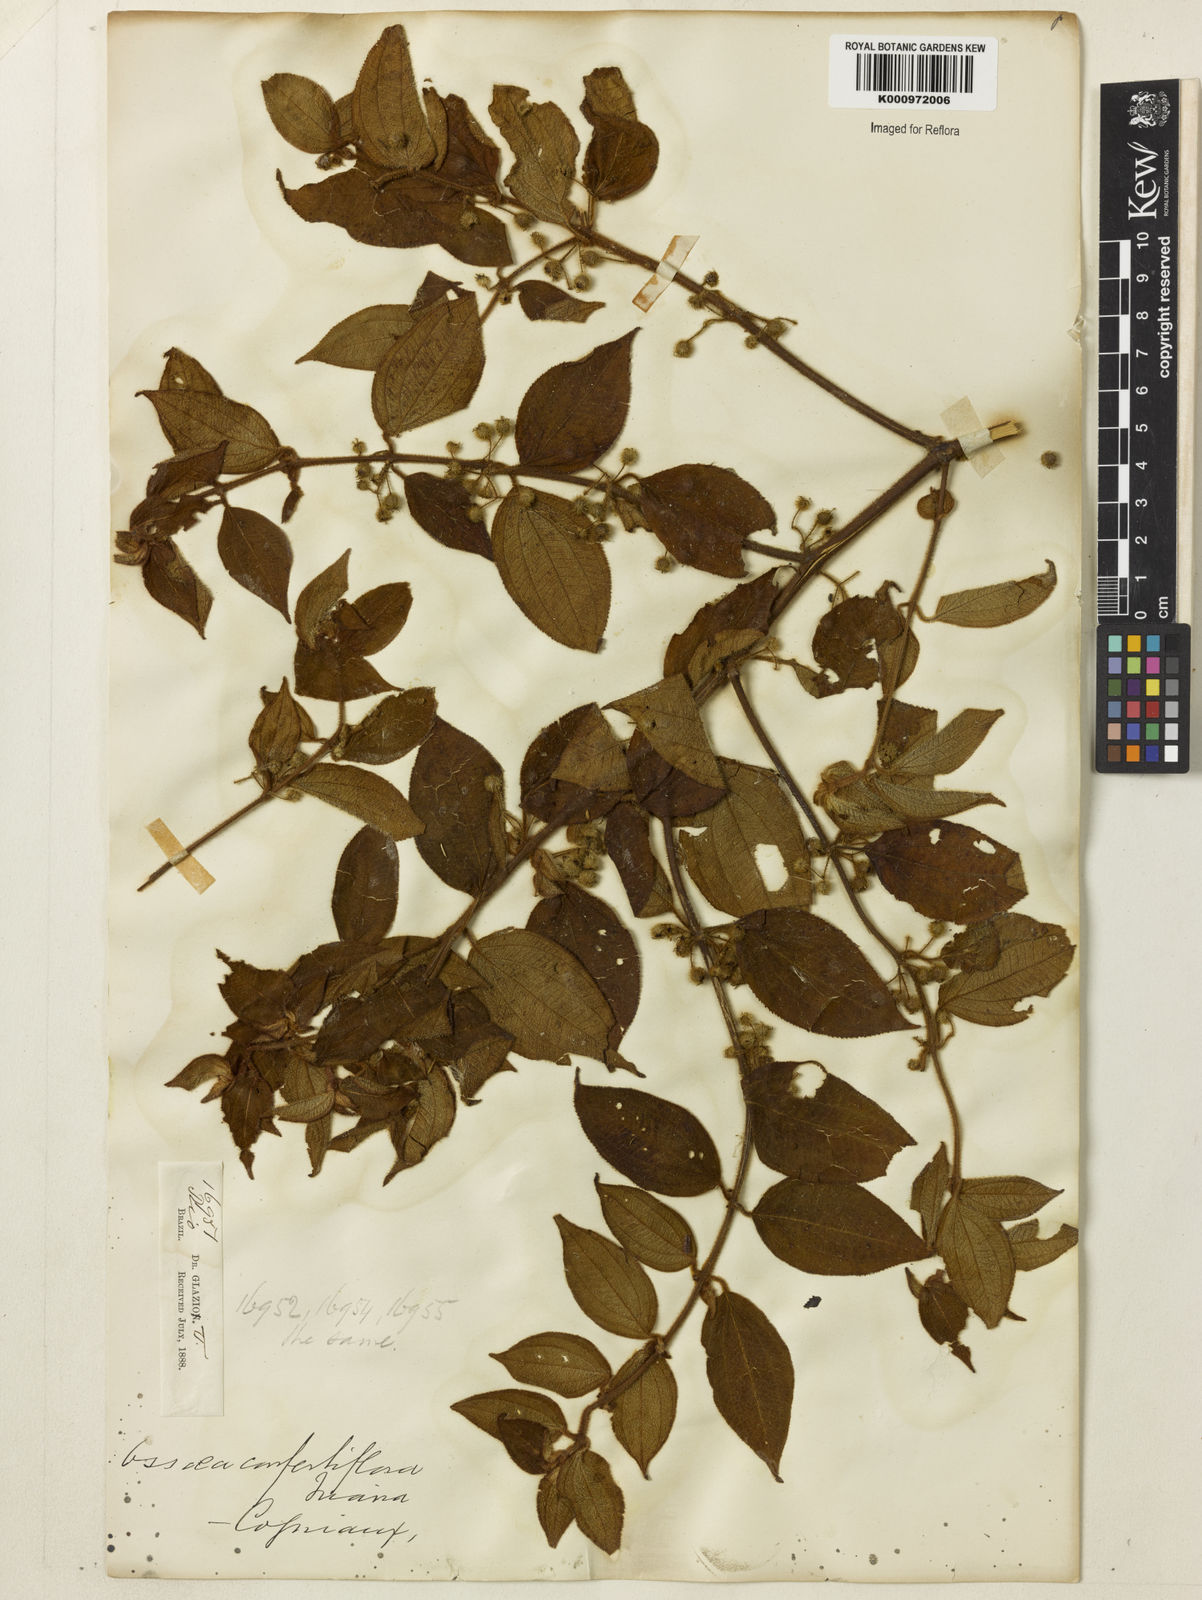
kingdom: Plantae
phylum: Tracheophyta
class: Magnoliopsida
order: Myrtales
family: Melastomataceae
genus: Miconia
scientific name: Miconia rubella
